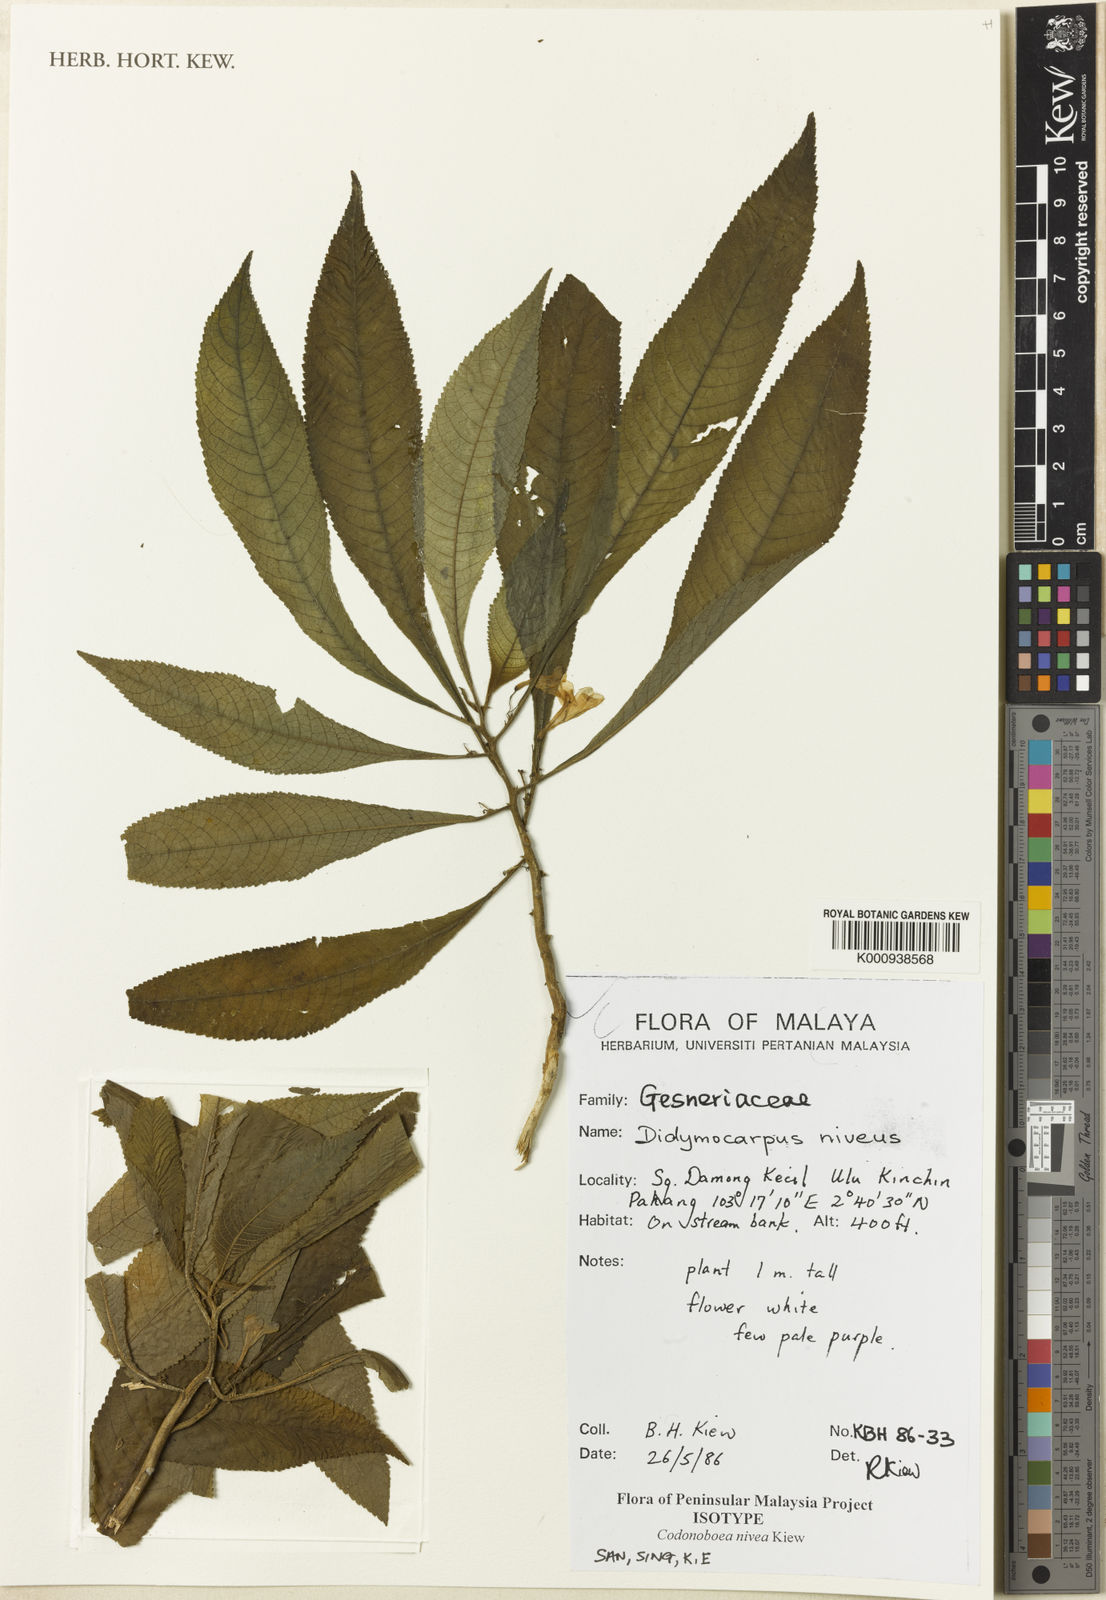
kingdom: Plantae
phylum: Tracheophyta
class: Magnoliopsida
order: Lamiales
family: Gesneriaceae
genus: Codonoboea
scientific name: Codonoboea nivea
